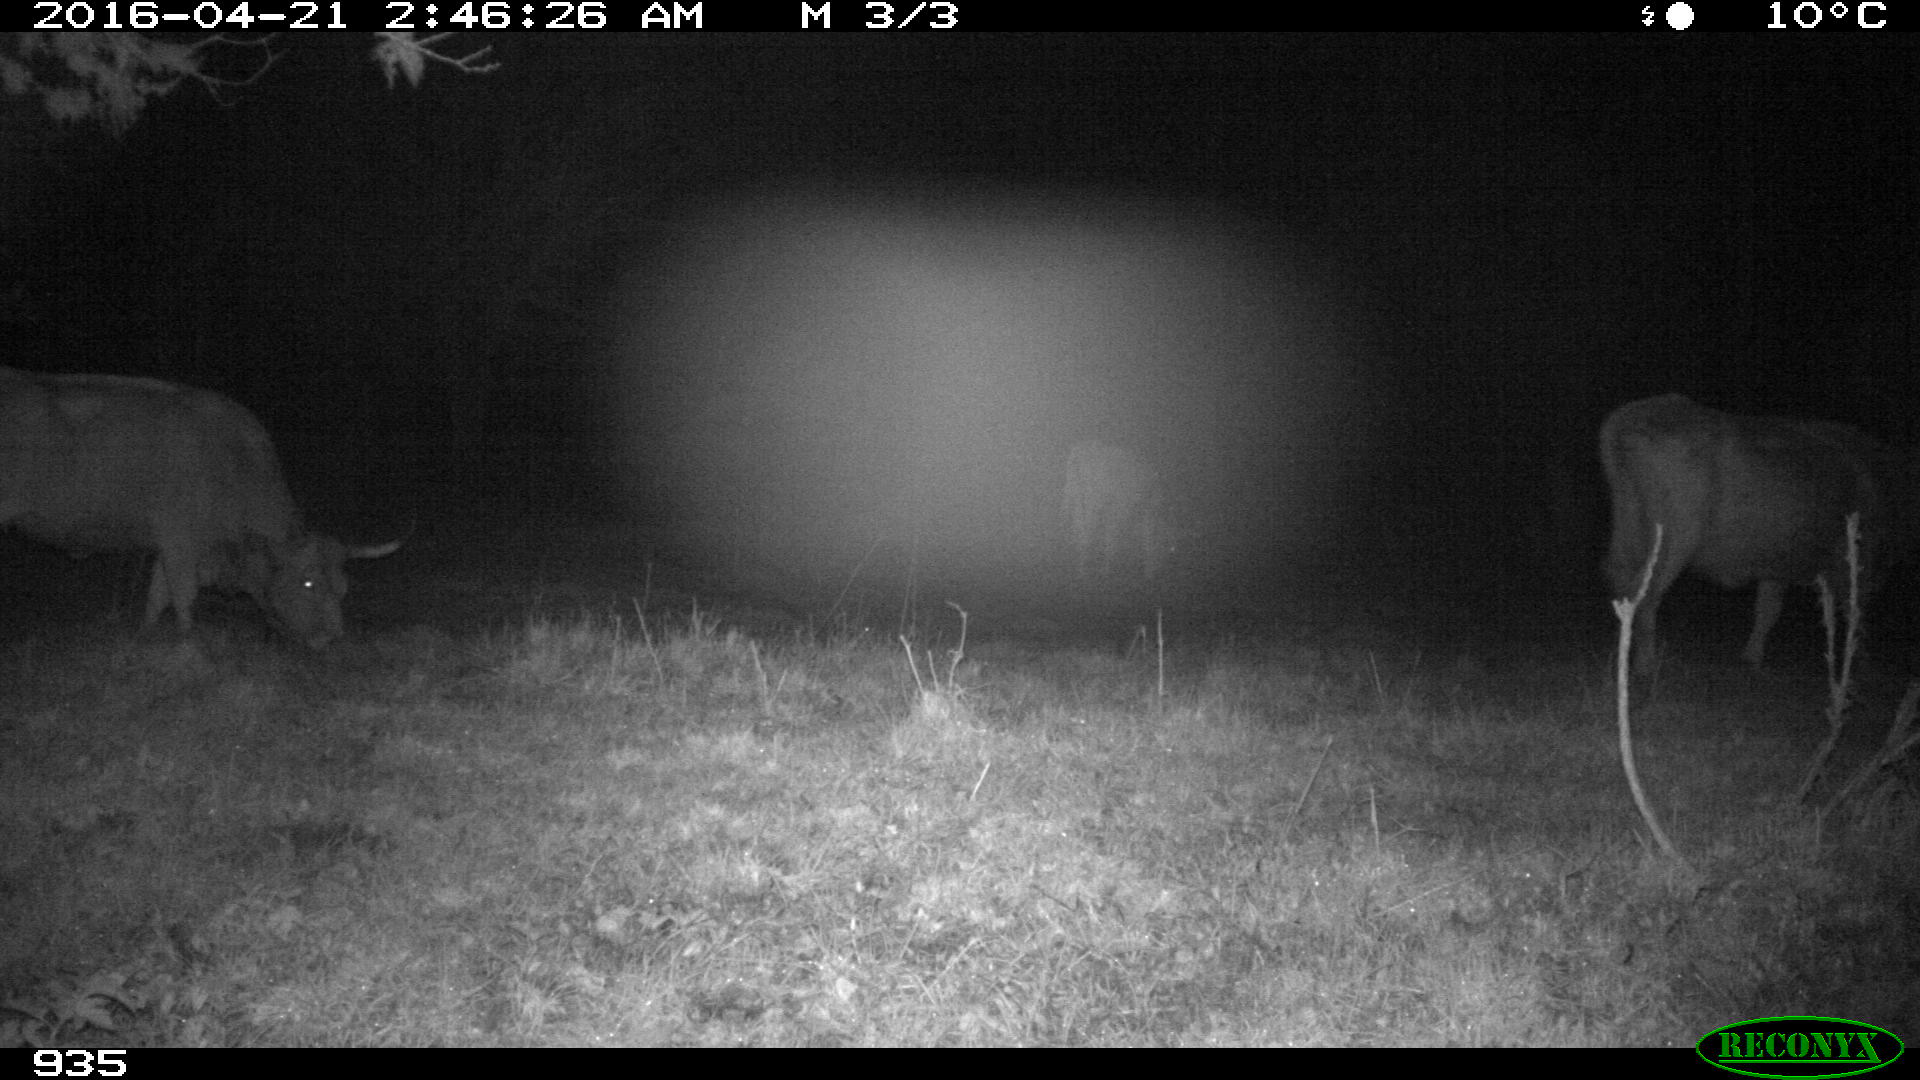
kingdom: Animalia
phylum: Chordata
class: Mammalia
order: Artiodactyla
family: Bovidae
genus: Bos
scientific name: Bos taurus
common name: Domesticated cattle
